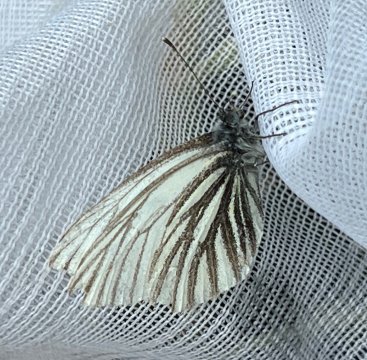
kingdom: Animalia
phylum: Arthropoda
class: Insecta
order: Lepidoptera
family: Pieridae
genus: Pieris
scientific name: Pieris angelika
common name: Arctic White
